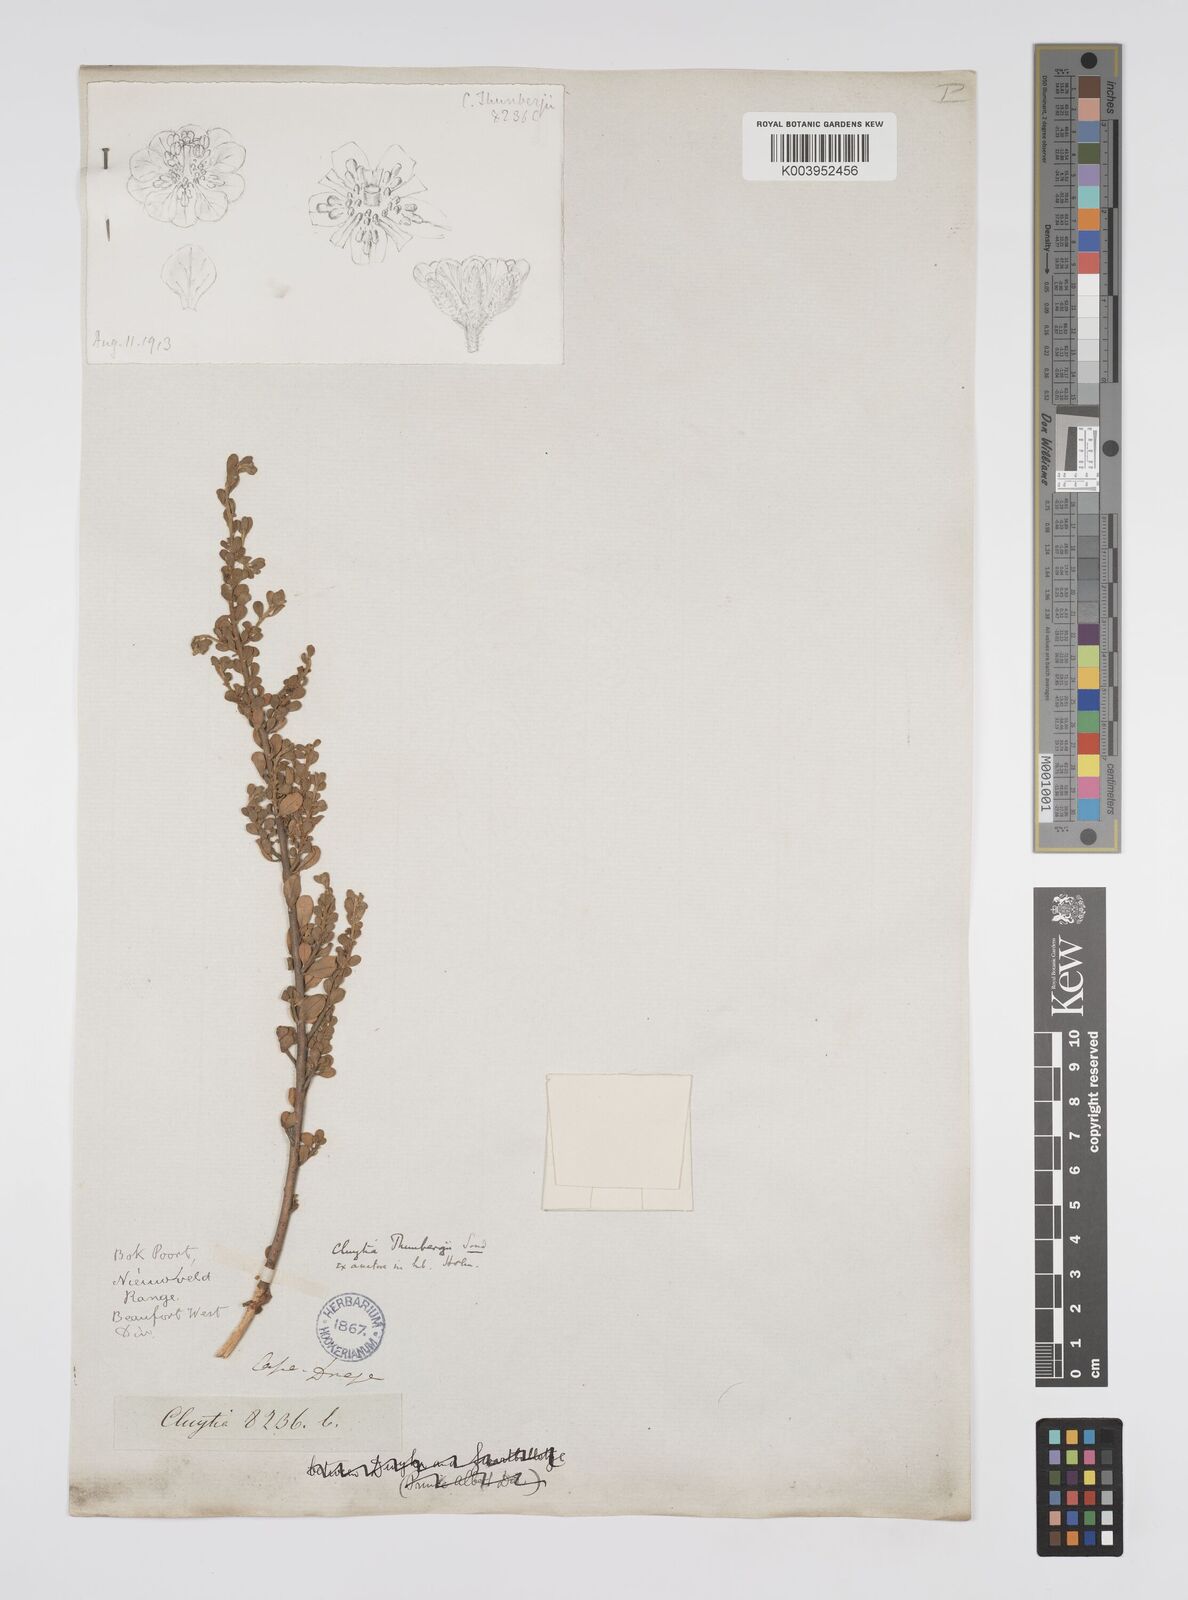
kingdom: Plantae
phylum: Tracheophyta
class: Magnoliopsida
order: Malpighiales
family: Peraceae
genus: Clutia
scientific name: Clutia thunbergii
